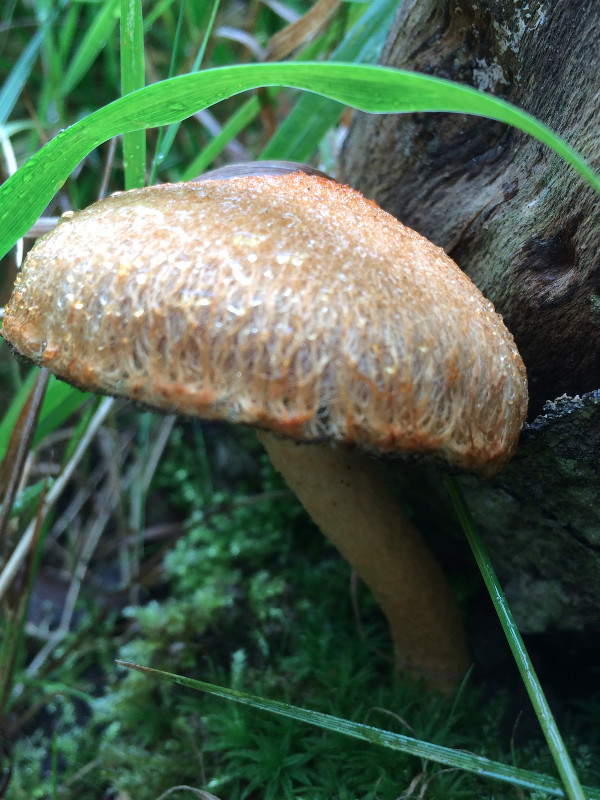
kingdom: Fungi
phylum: Basidiomycota
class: Agaricomycetes
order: Agaricales
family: Psathyrellaceae
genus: Lacrymaria
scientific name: Lacrymaria pyrotricha
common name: ildhåret mørkhat
